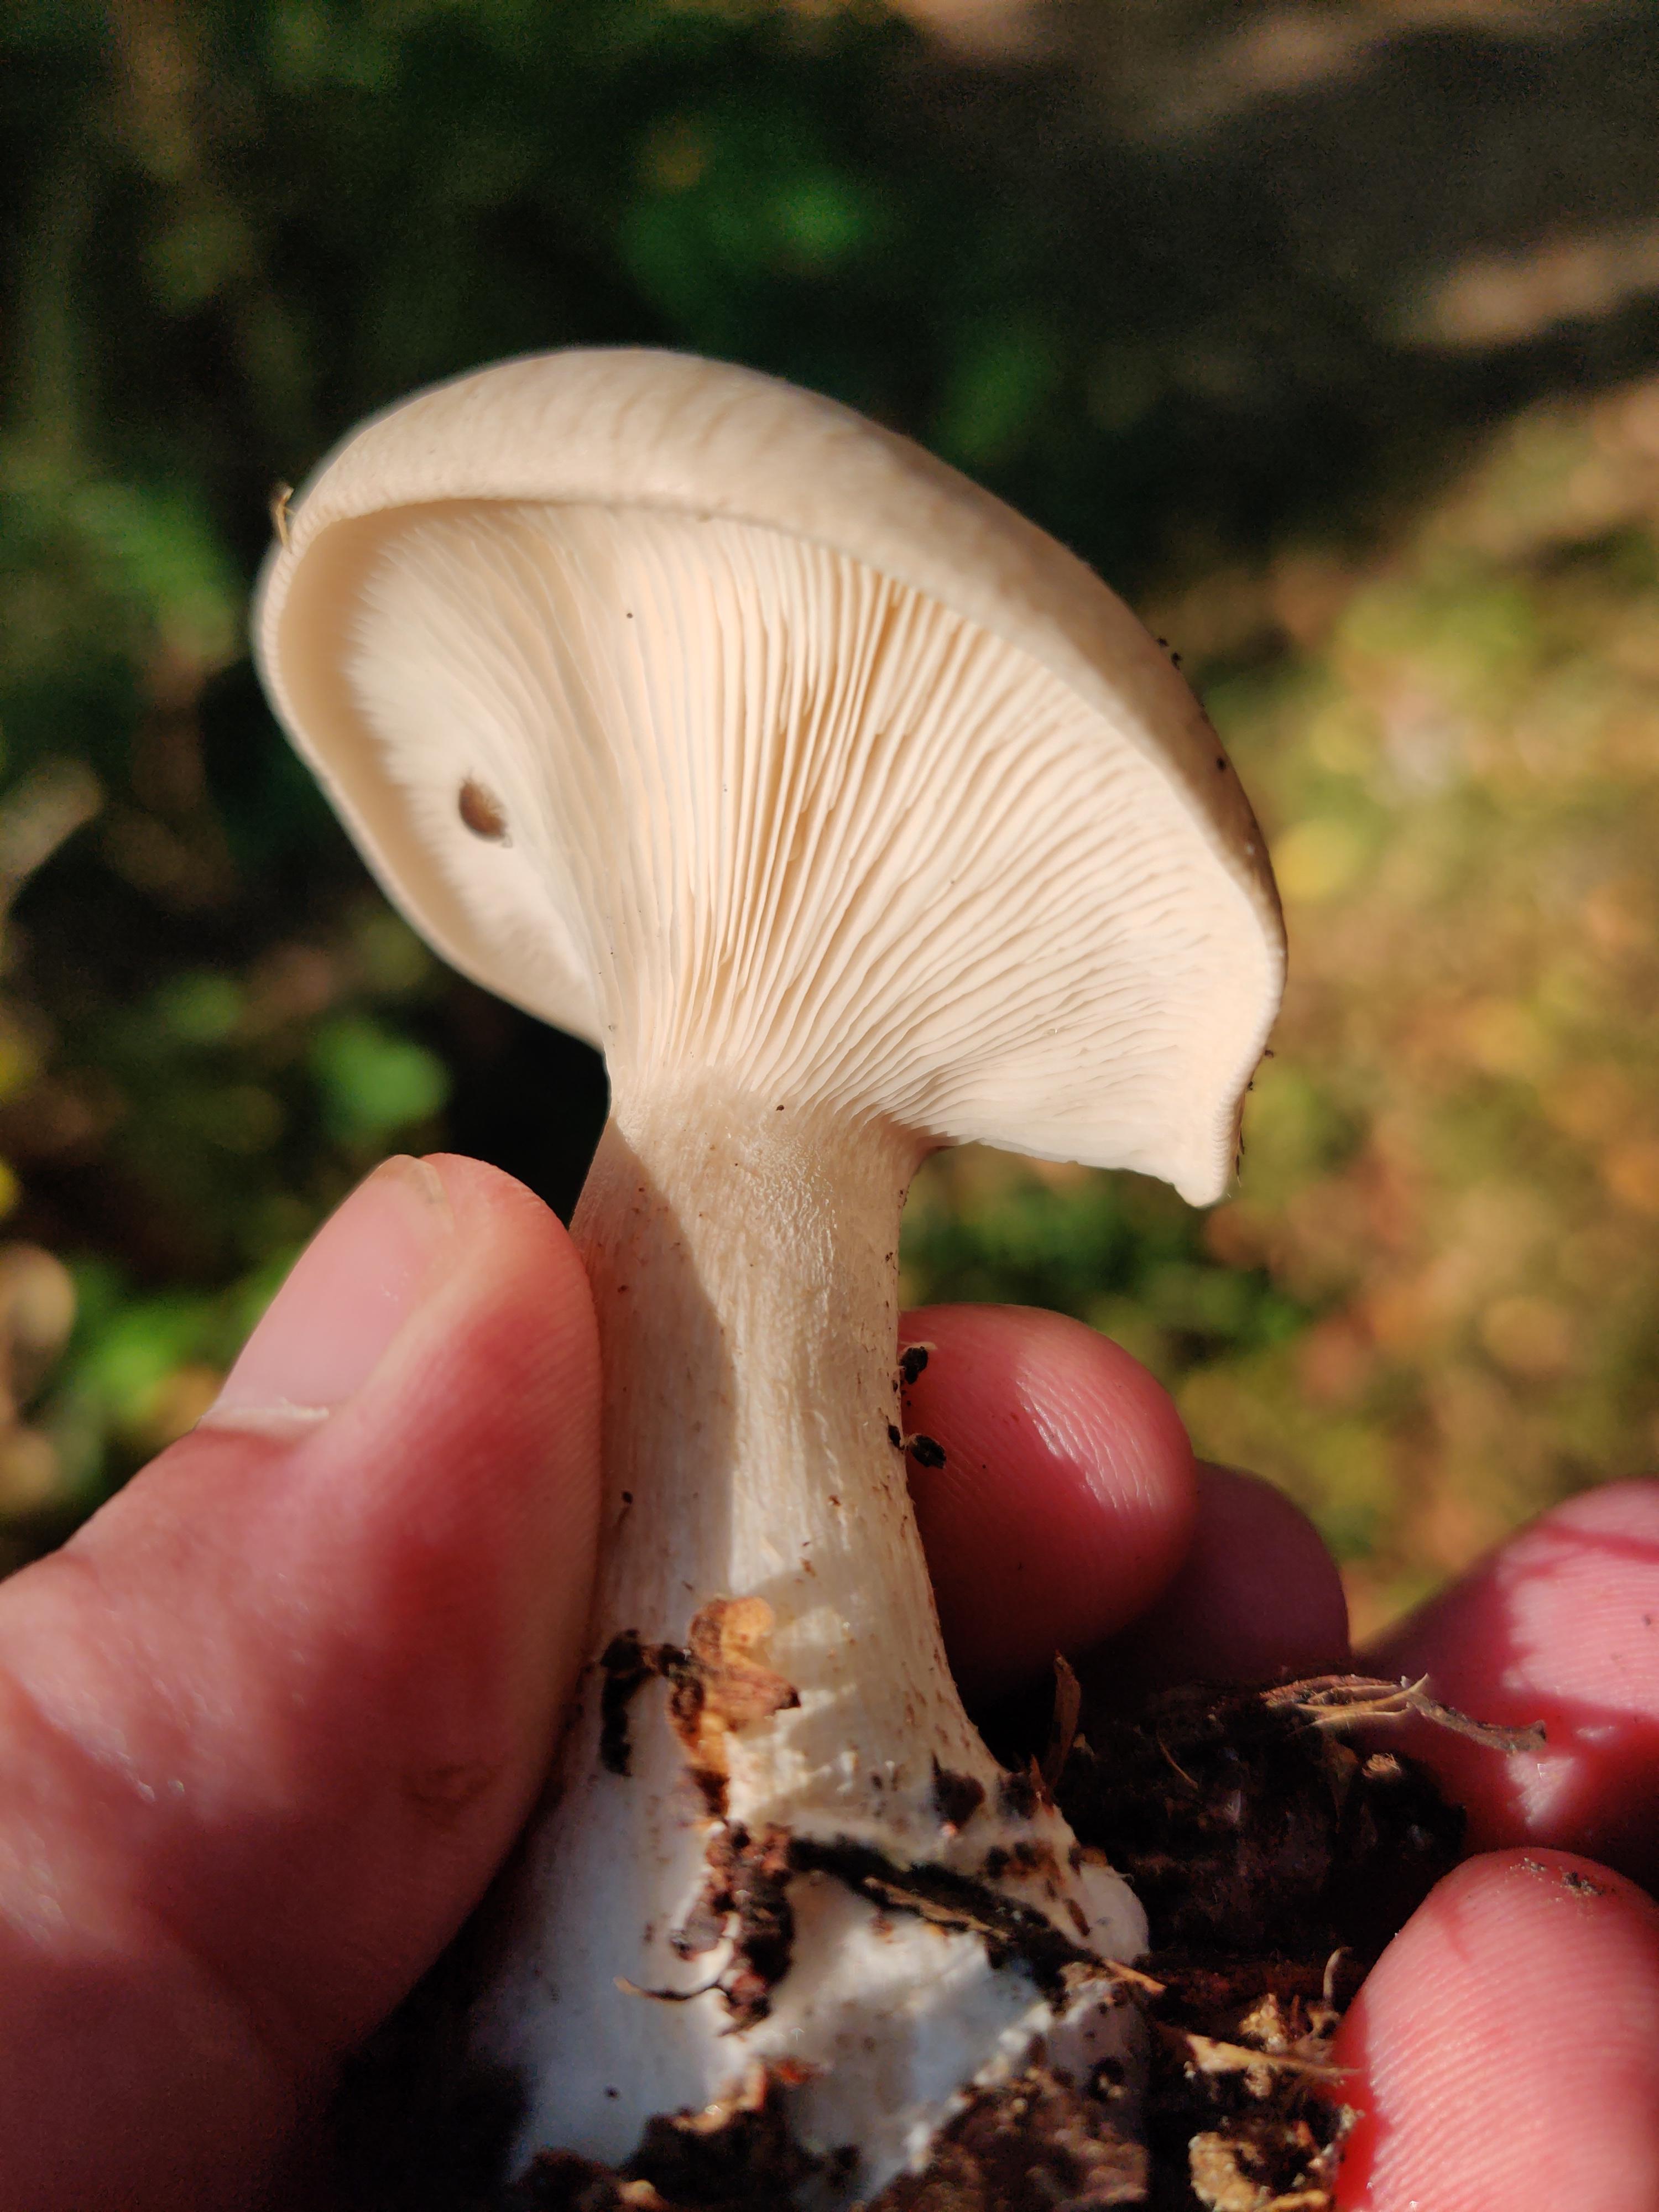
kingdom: Fungi
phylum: Basidiomycota
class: Agaricomycetes
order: Agaricales
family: Tricholomataceae
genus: Clitocybe
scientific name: Clitocybe nebularis
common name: tåge-tragthat
